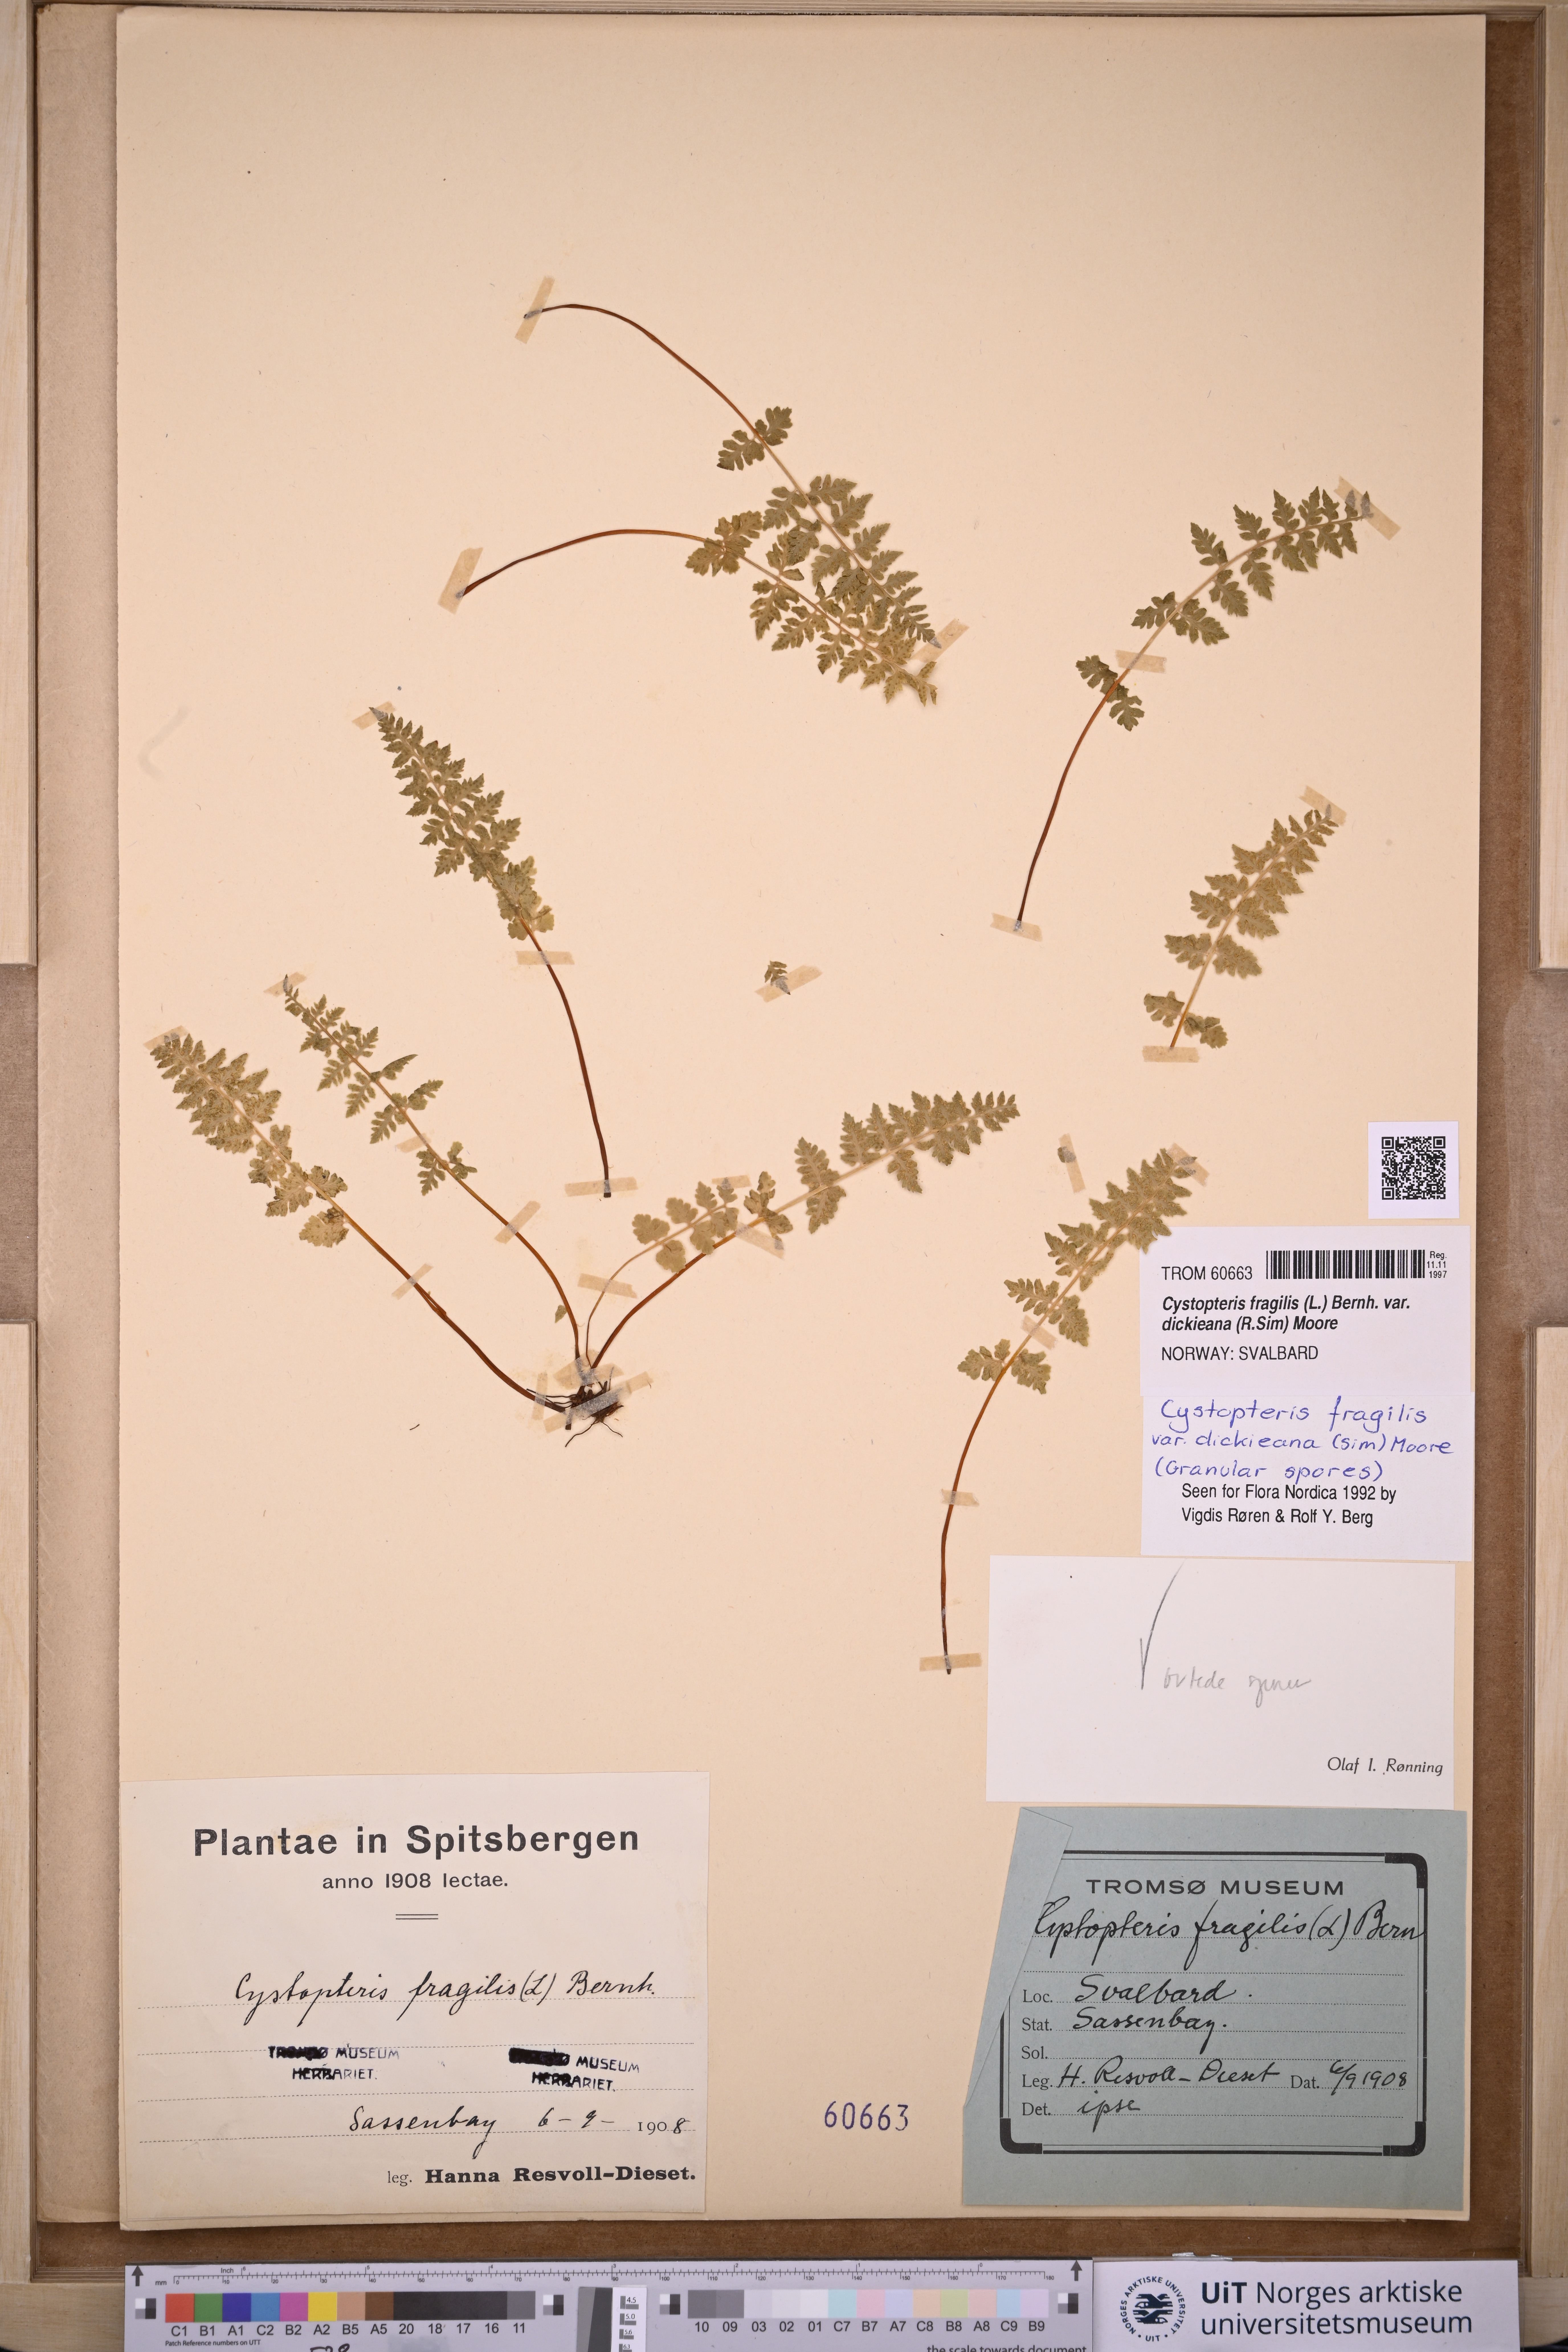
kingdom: Plantae
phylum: Tracheophyta
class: Polypodiopsida
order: Polypodiales
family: Cystopteridaceae
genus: Cystopteris
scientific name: Cystopteris dickieana
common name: Dickie's bladder-fern
